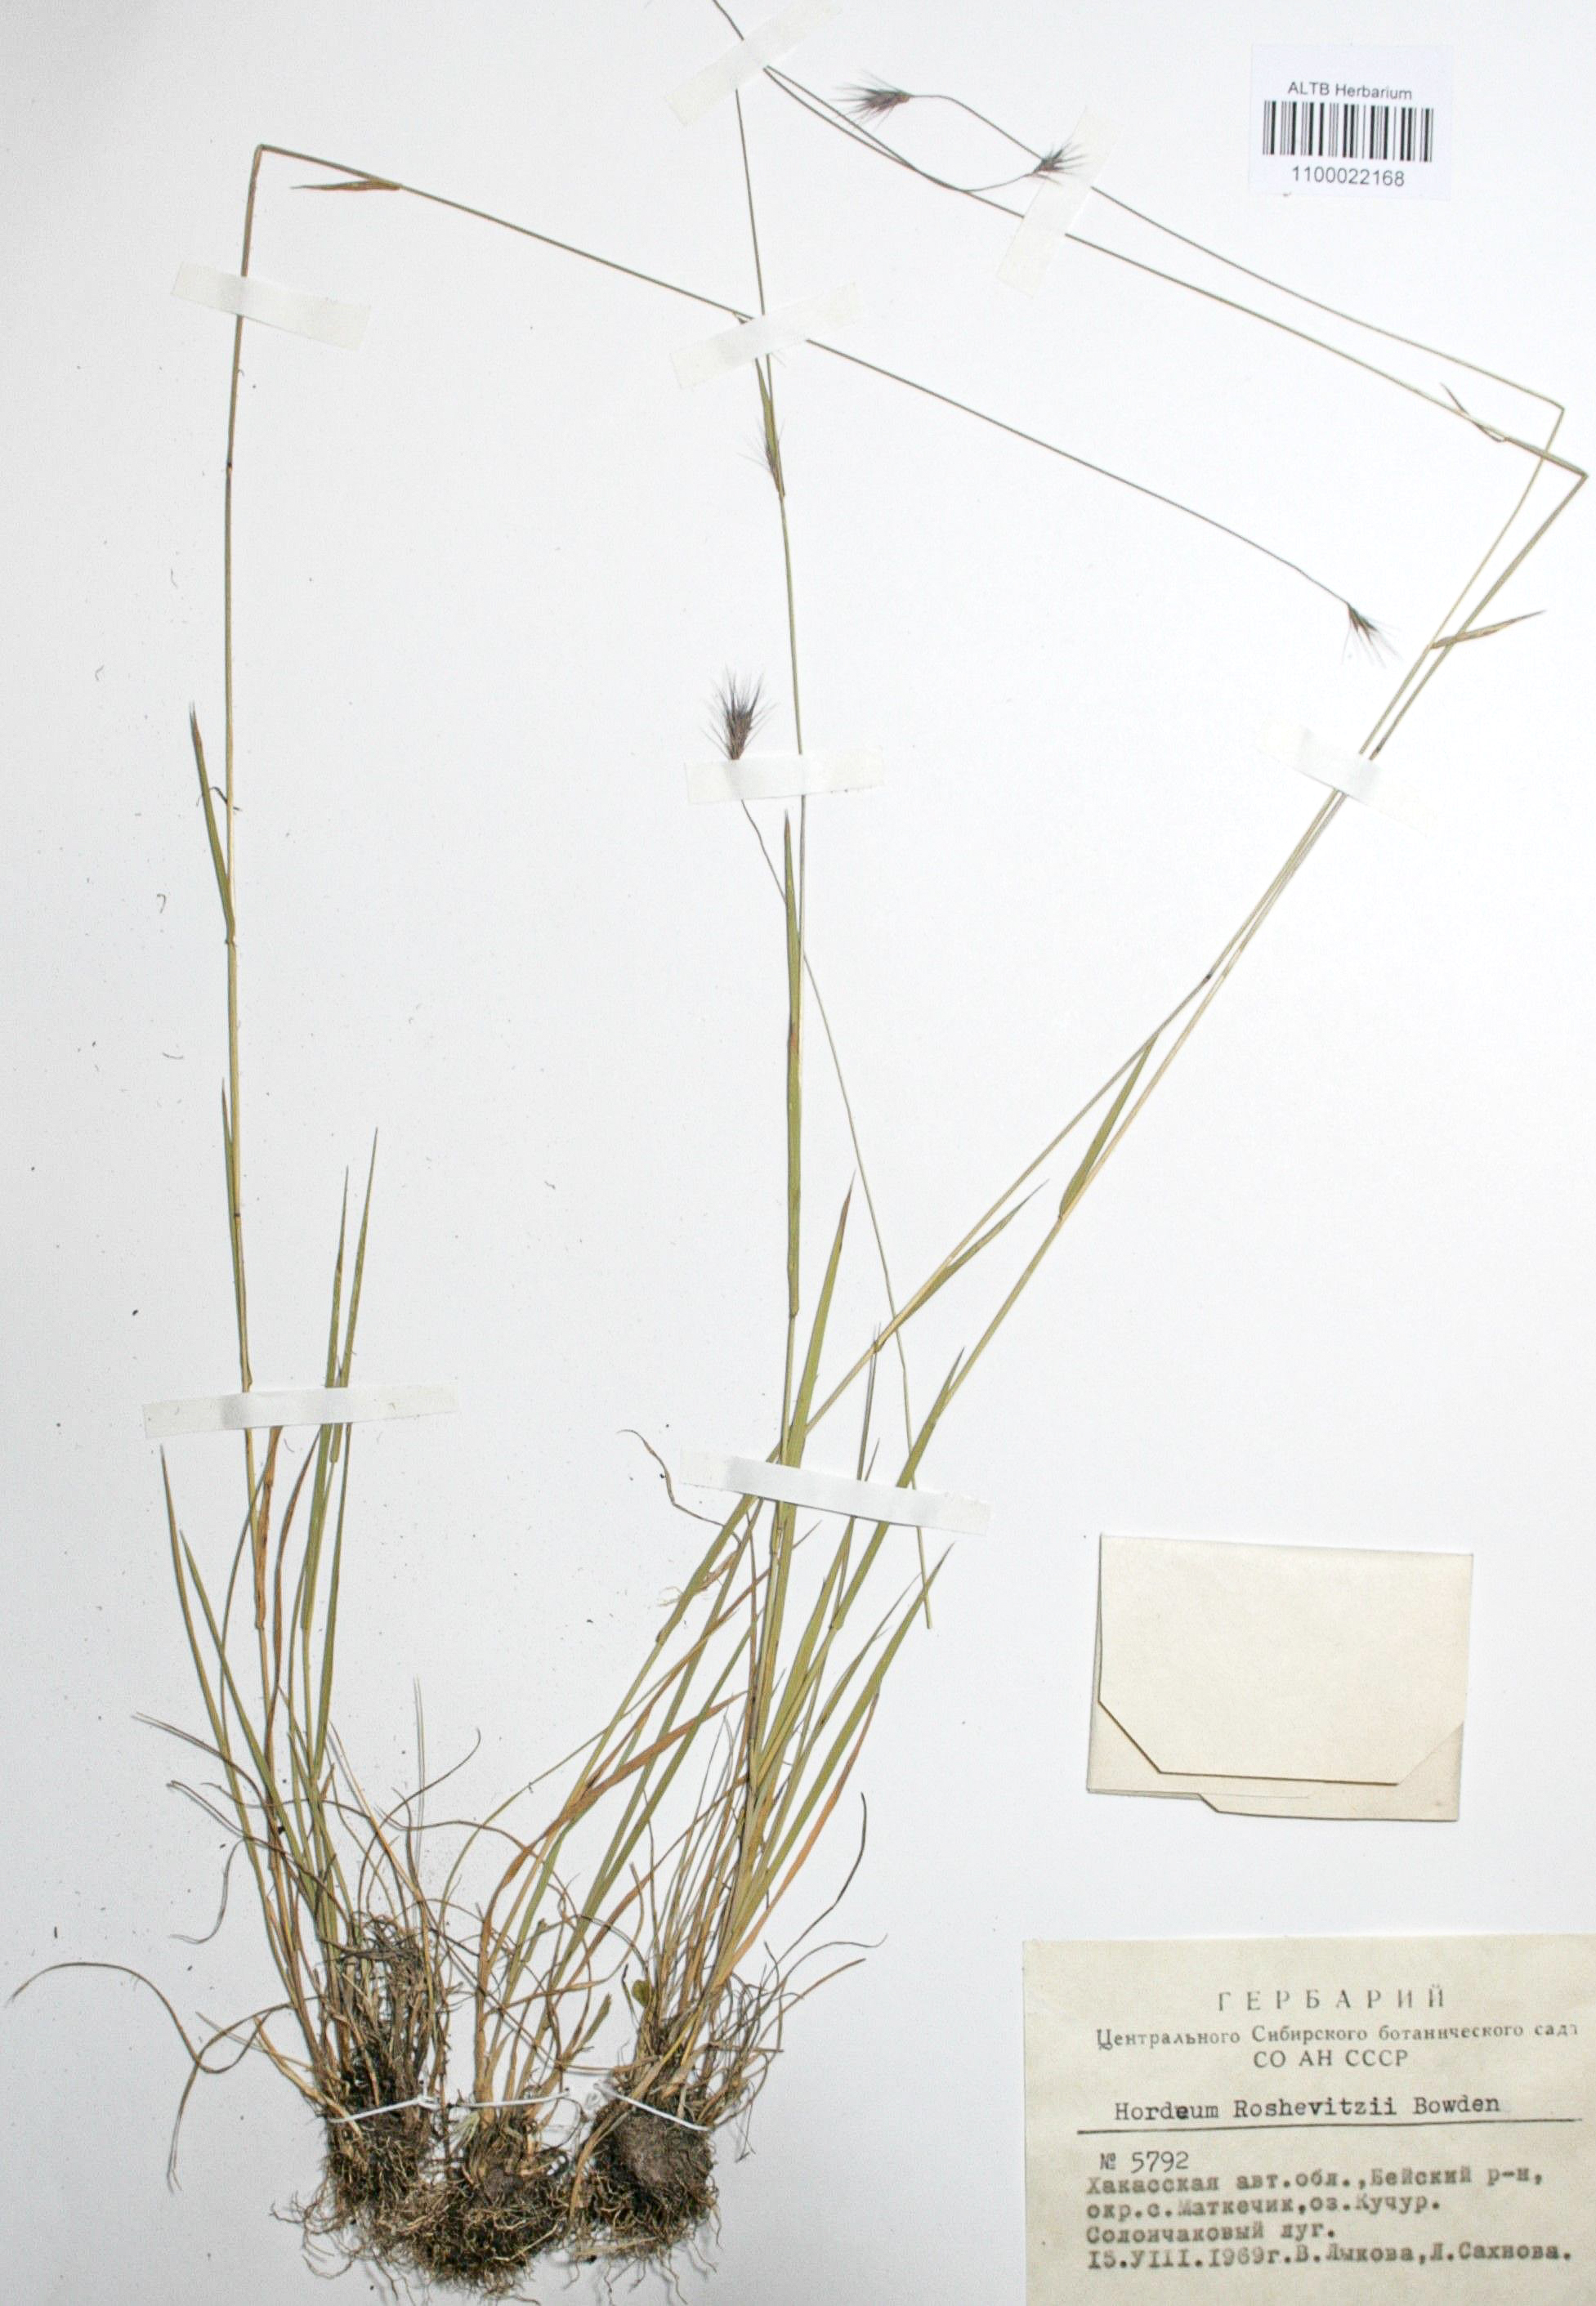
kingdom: Plantae
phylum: Tracheophyta
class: Liliopsida
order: Poales
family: Poaceae
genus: Hordeum
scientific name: Hordeum roshevitzii
